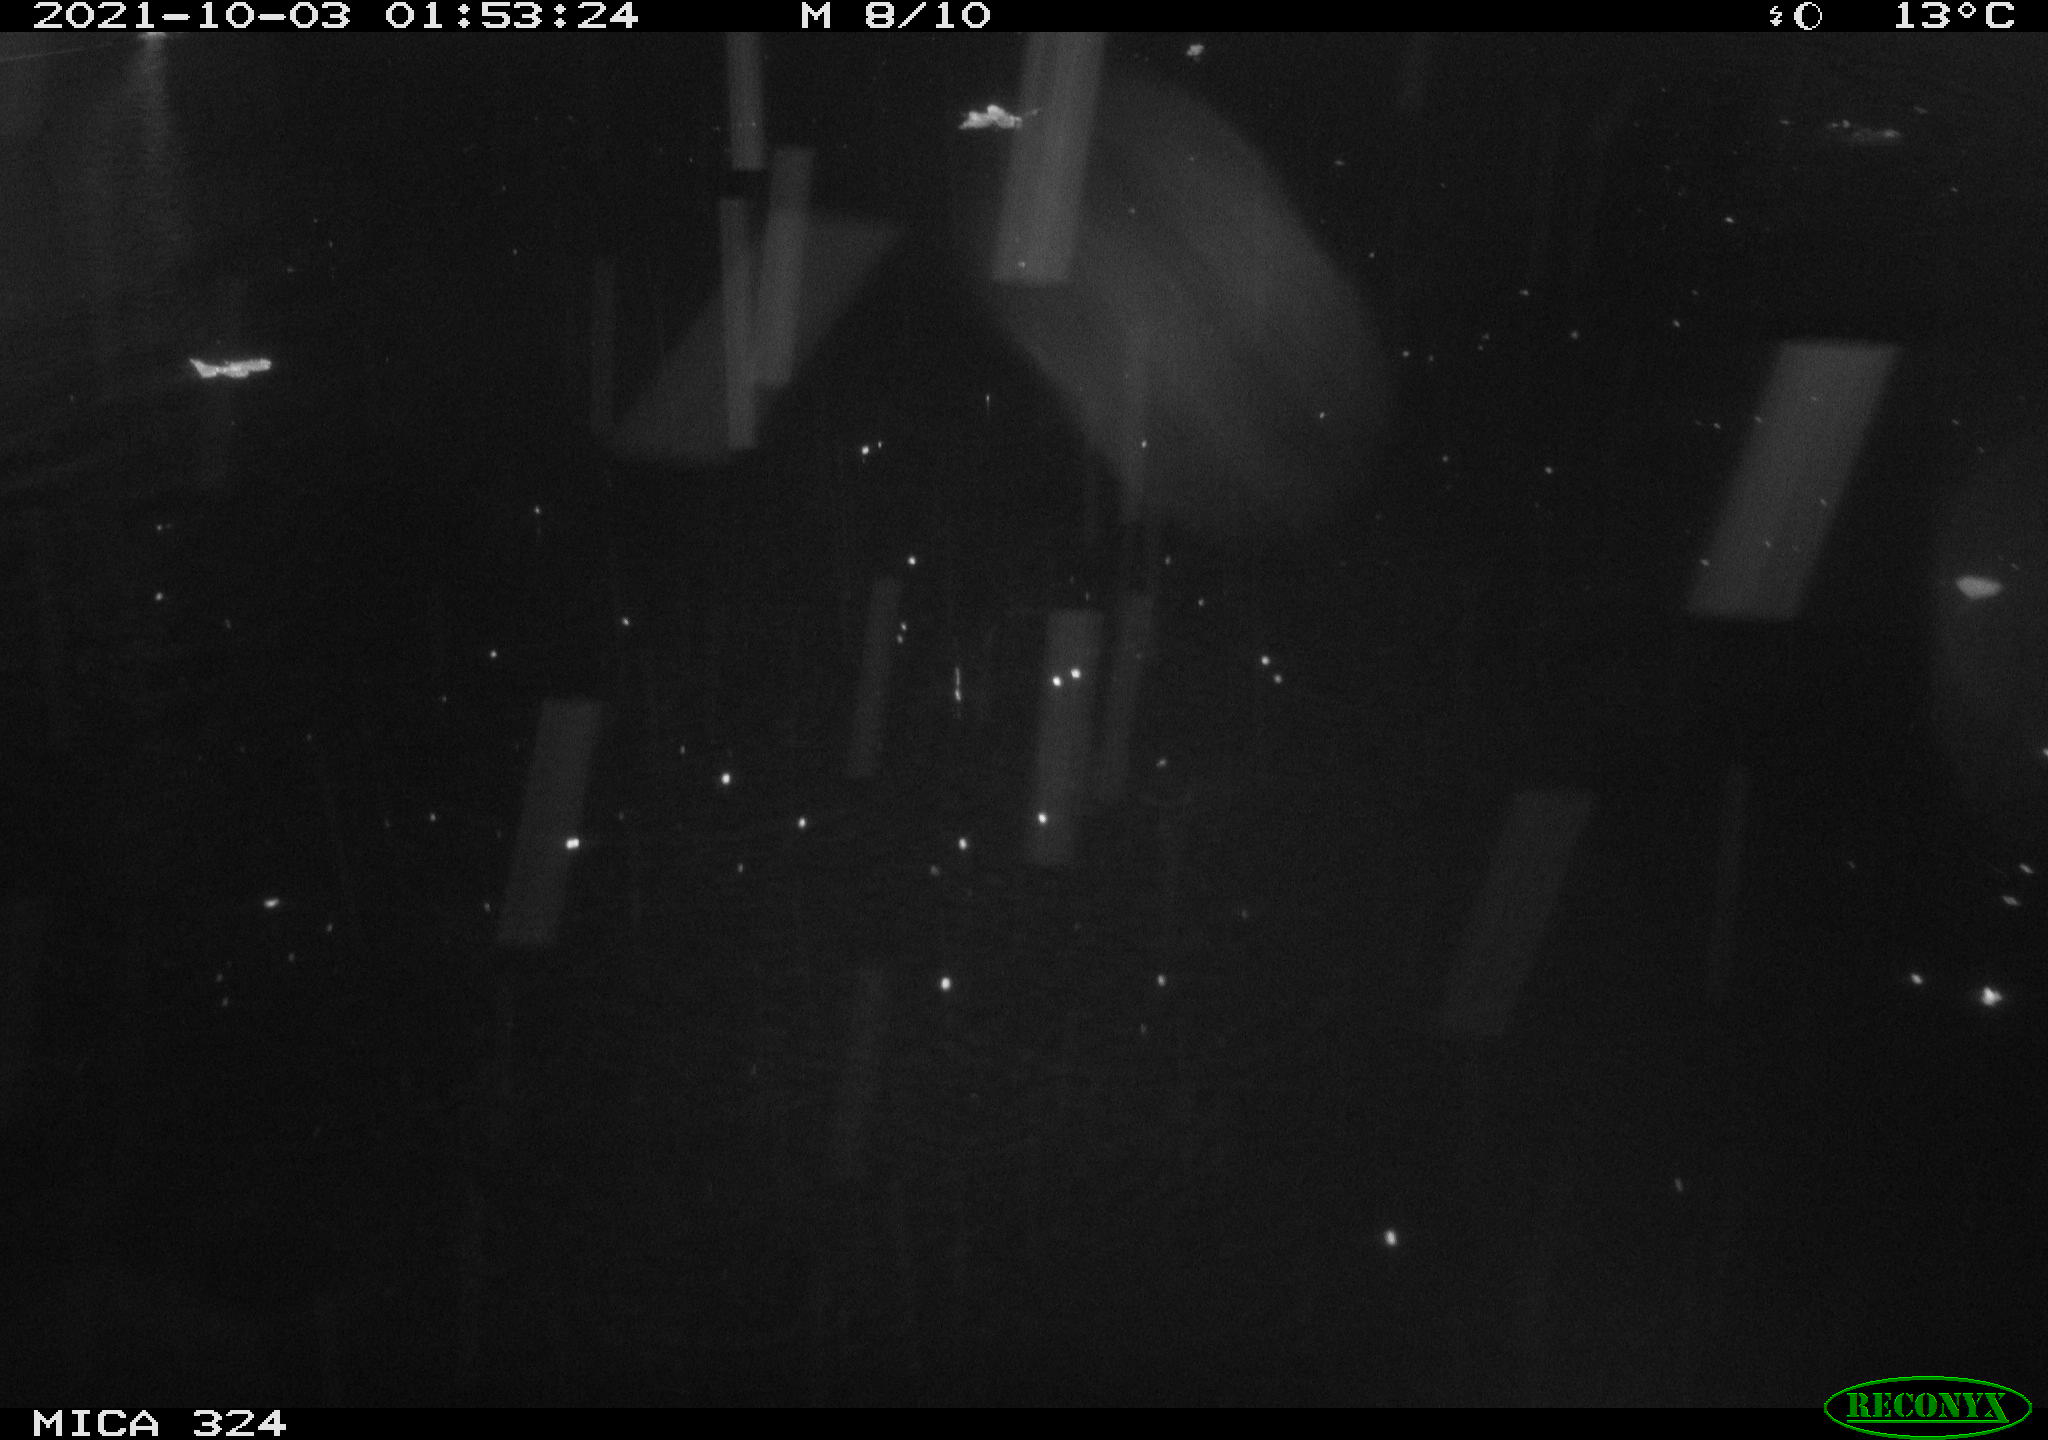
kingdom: Animalia
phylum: Chordata
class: Mammalia
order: Rodentia
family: Cricetidae
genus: Ondatra
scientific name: Ondatra zibethicus
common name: Muskrat
